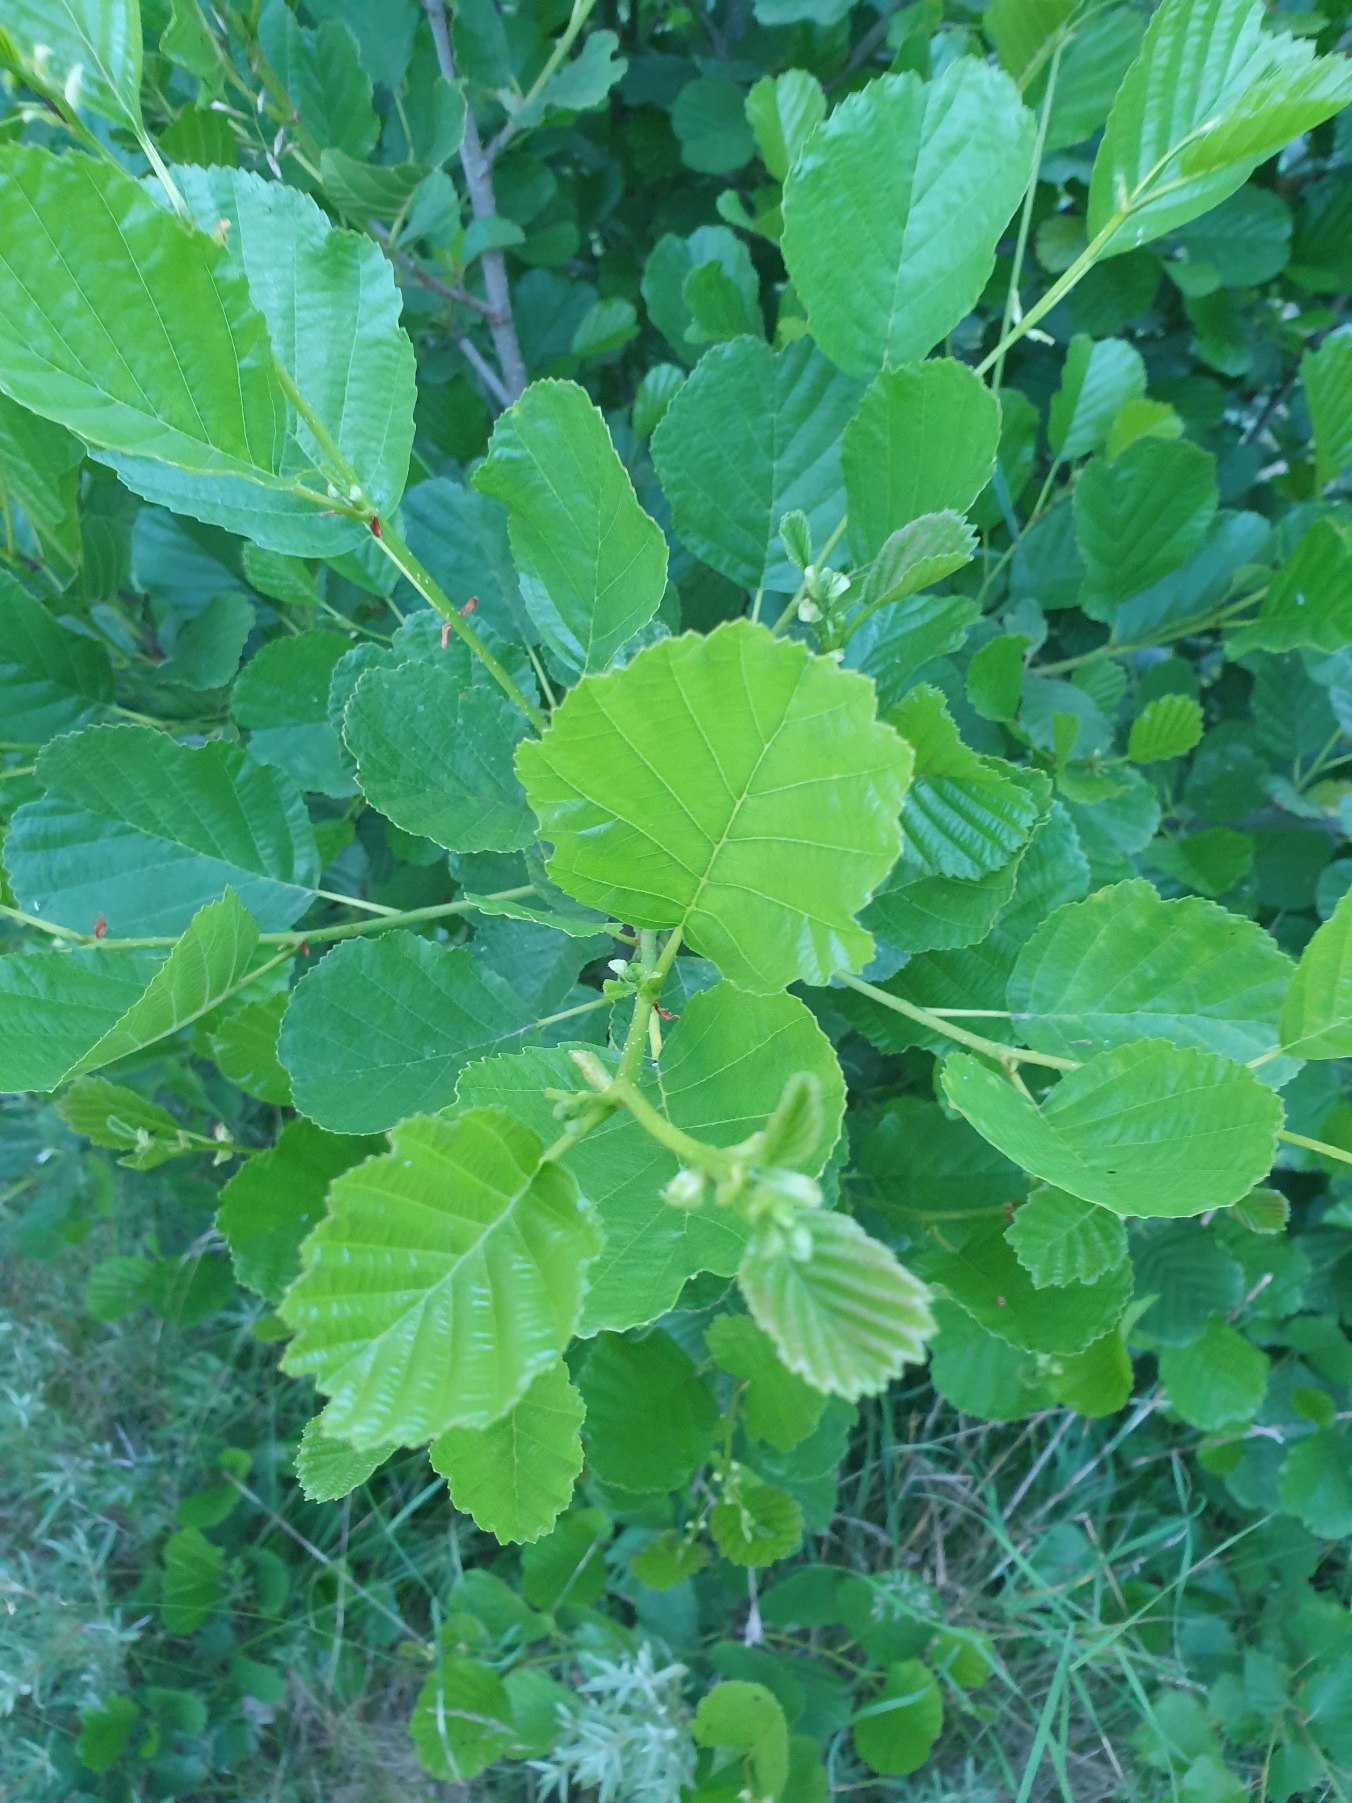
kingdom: Plantae
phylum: Tracheophyta
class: Magnoliopsida
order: Fagales
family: Betulaceae
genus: Alnus
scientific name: Alnus glutinosa
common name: Rød-el
